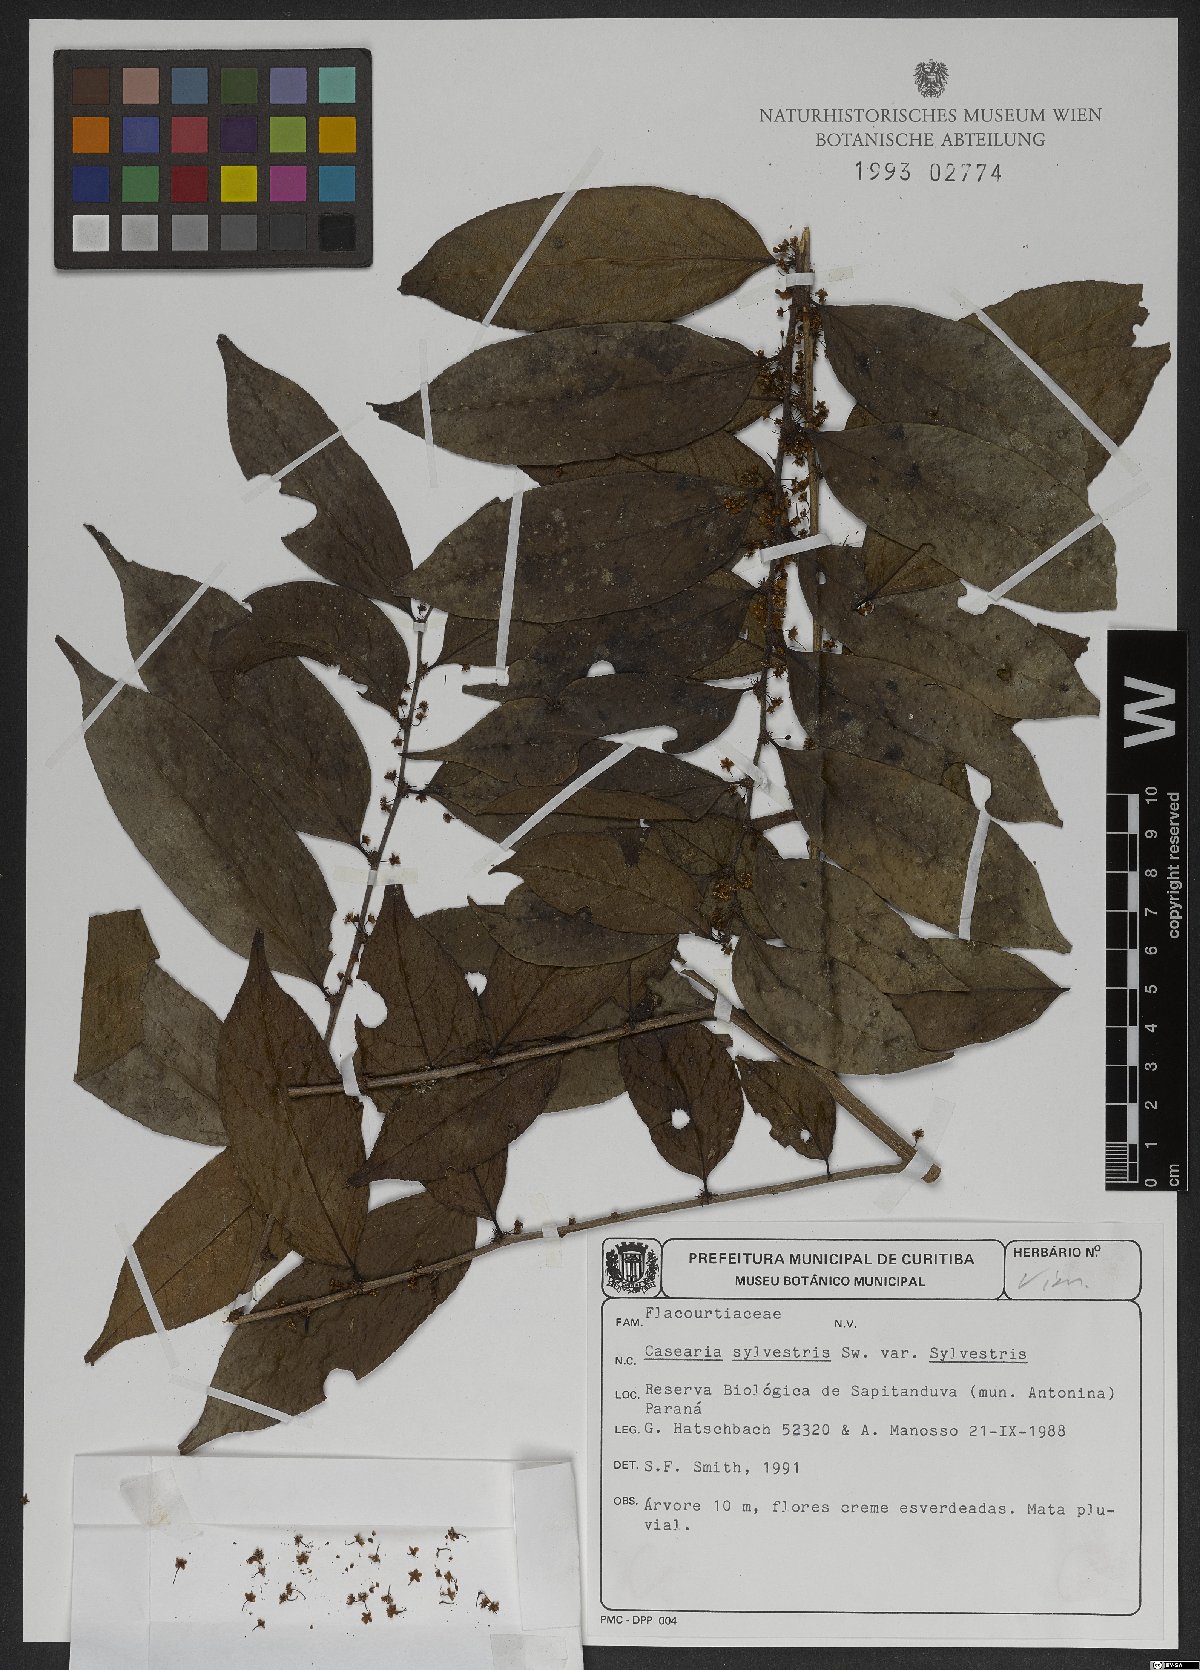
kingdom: Plantae
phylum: Tracheophyta
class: Magnoliopsida
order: Malpighiales
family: Salicaceae
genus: Casearia
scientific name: Casearia sylvestris
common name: Wild sage
